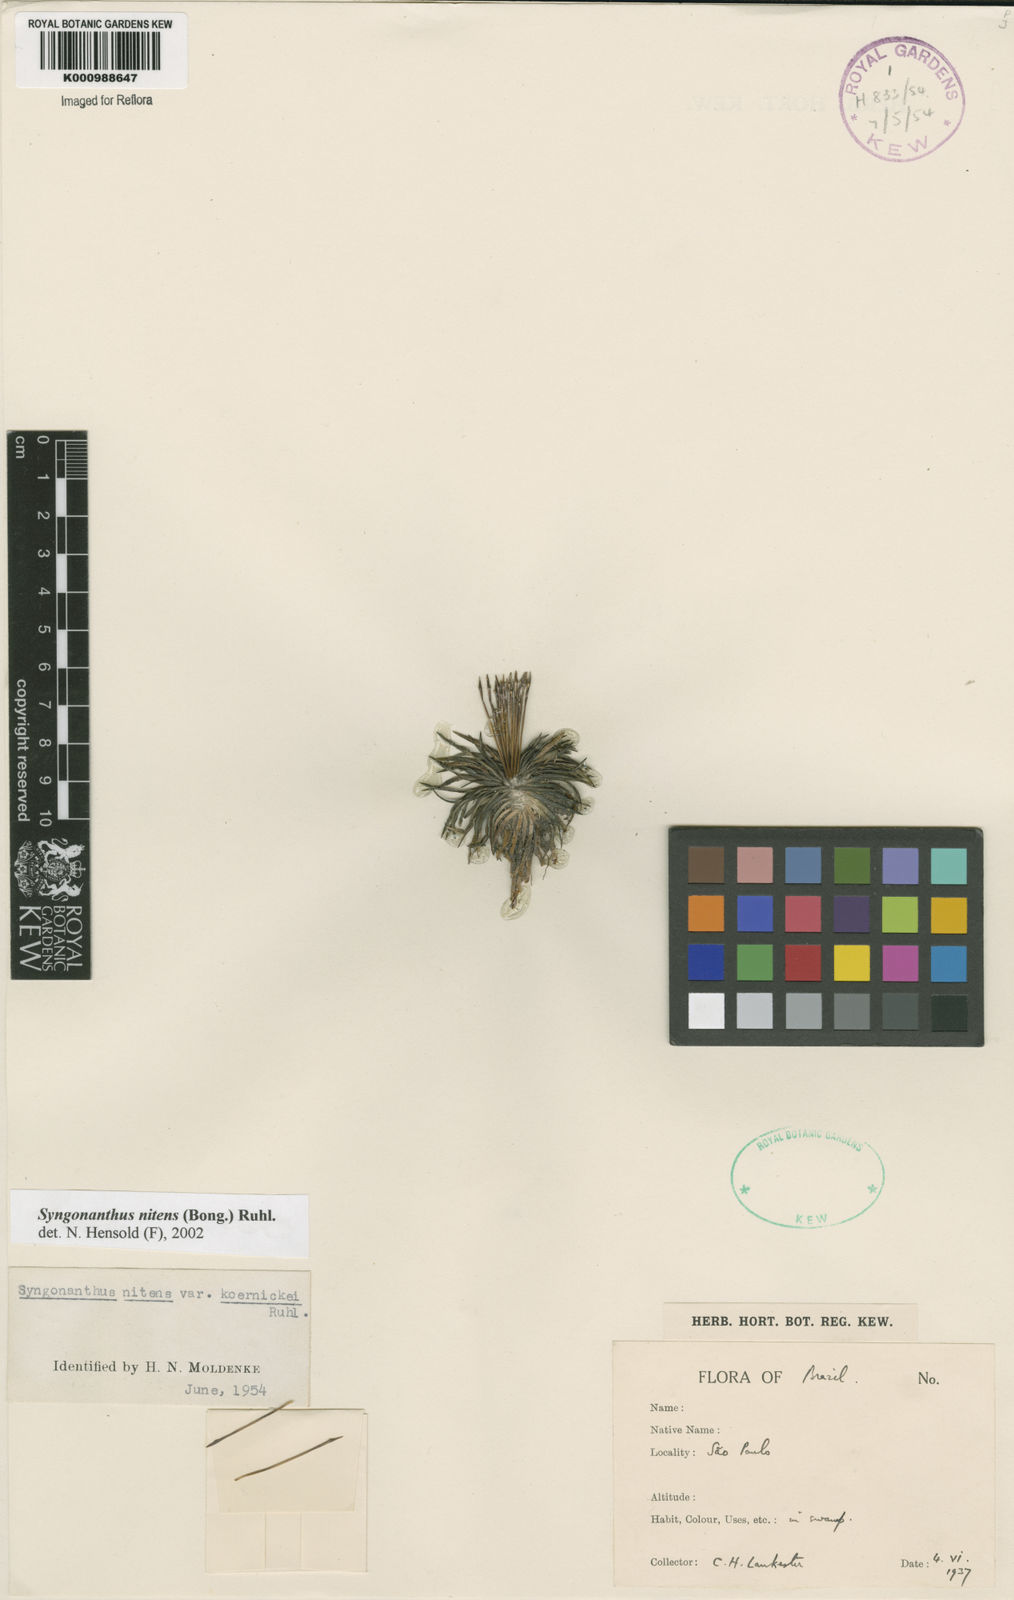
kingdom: Plantae
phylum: Tracheophyta
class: Liliopsida
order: Poales
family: Eriocaulaceae
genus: Syngonanthus
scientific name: Syngonanthus nitens
